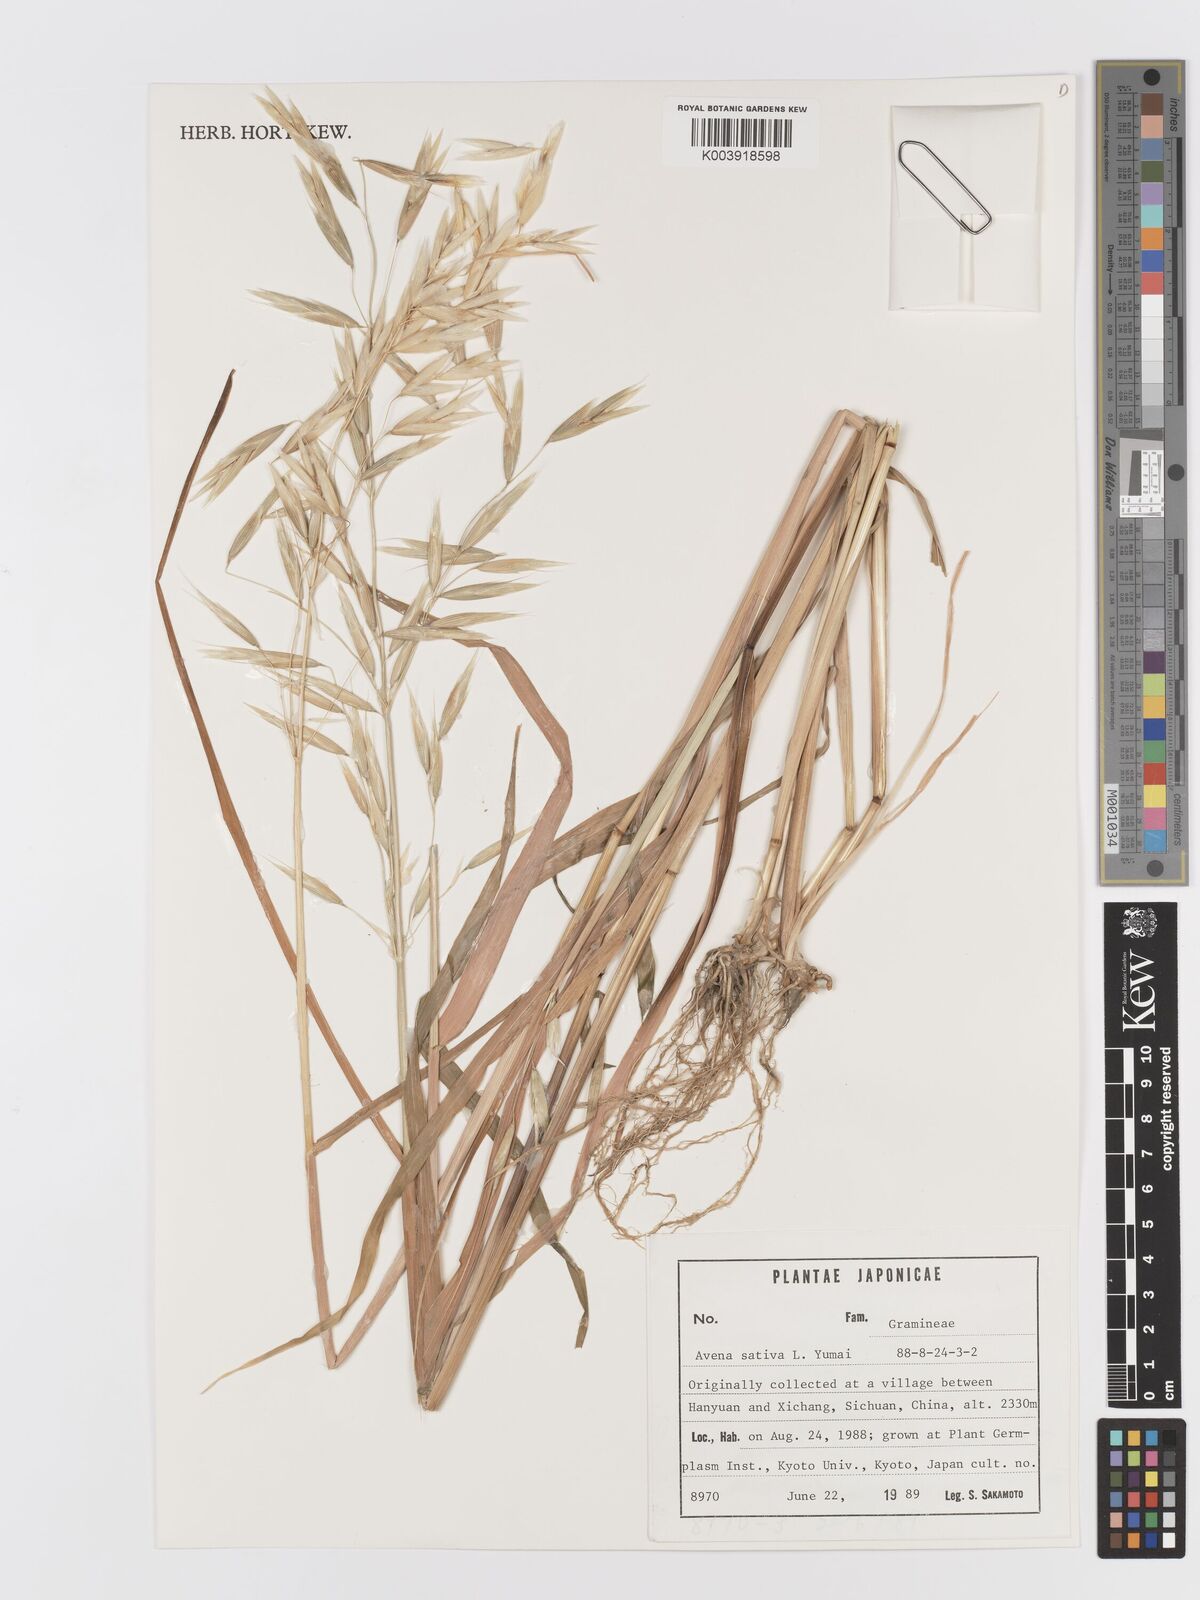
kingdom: Plantae
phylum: Tracheophyta
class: Liliopsida
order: Poales
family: Poaceae
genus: Avena
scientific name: Avena chinensis
